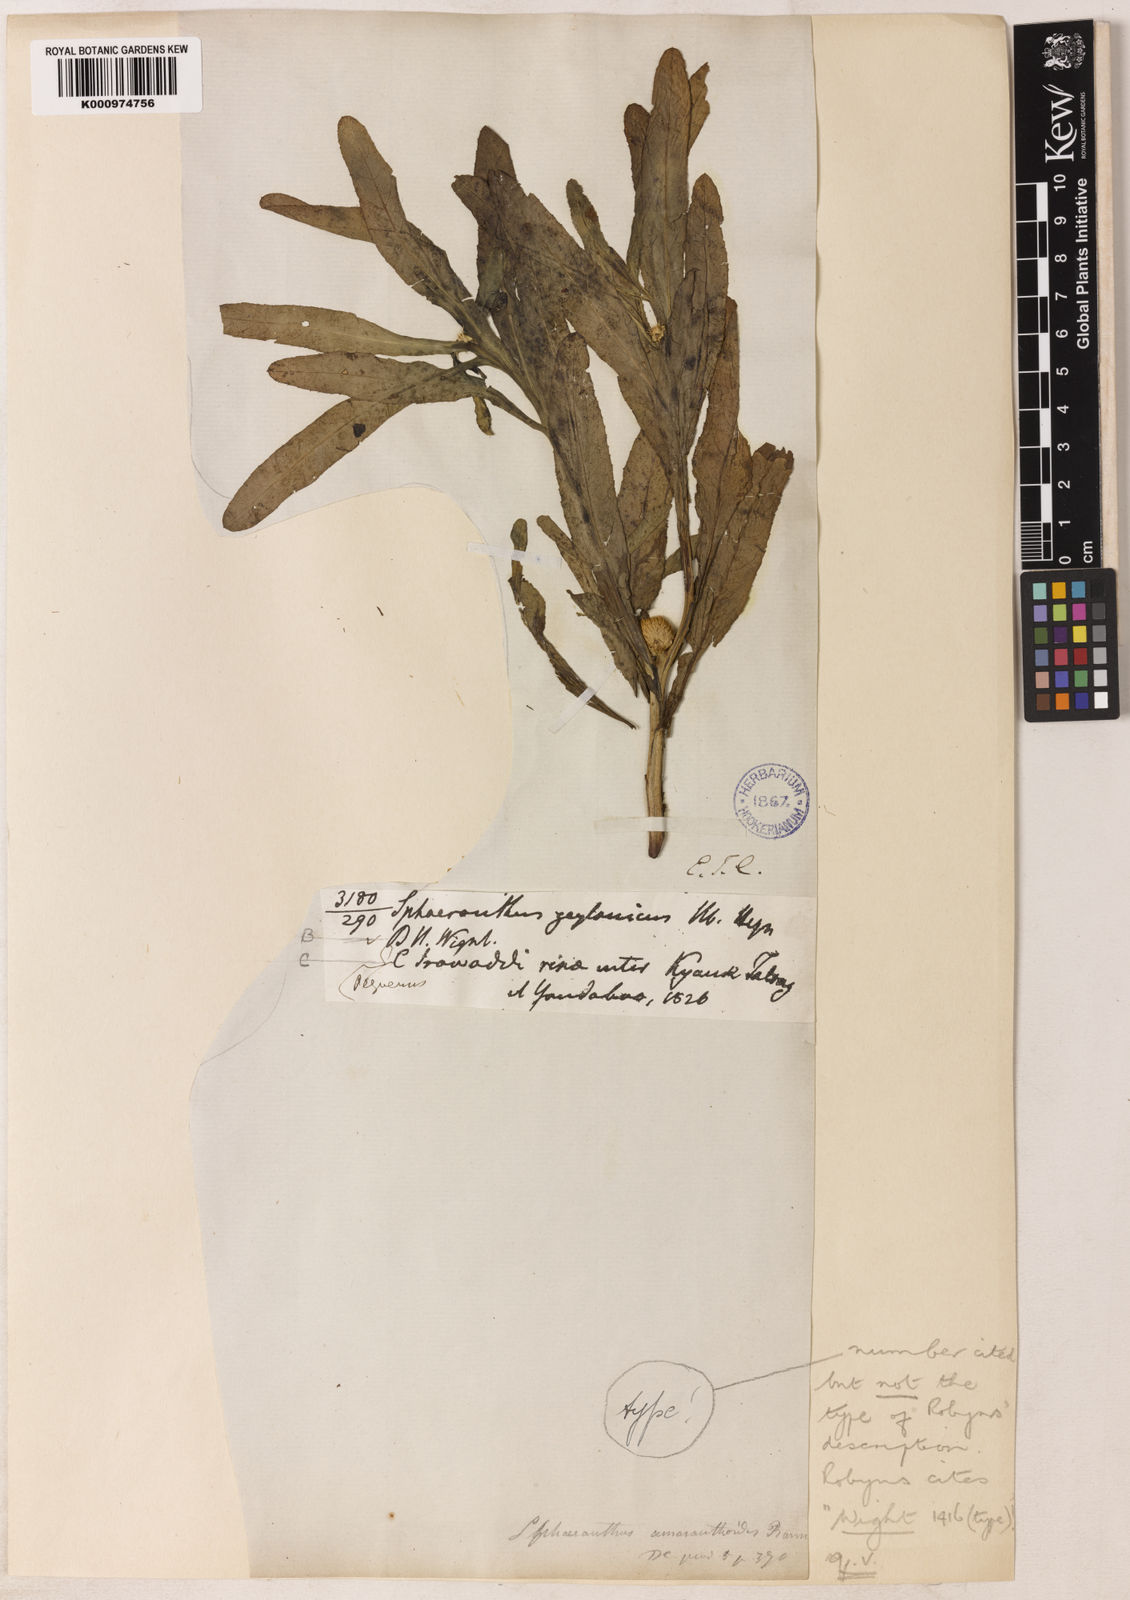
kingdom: Plantae
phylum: Tracheophyta
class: Magnoliopsida
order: Asterales
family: Asteraceae
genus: Sphaeranthus
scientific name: Sphaeranthus amaranthoides
